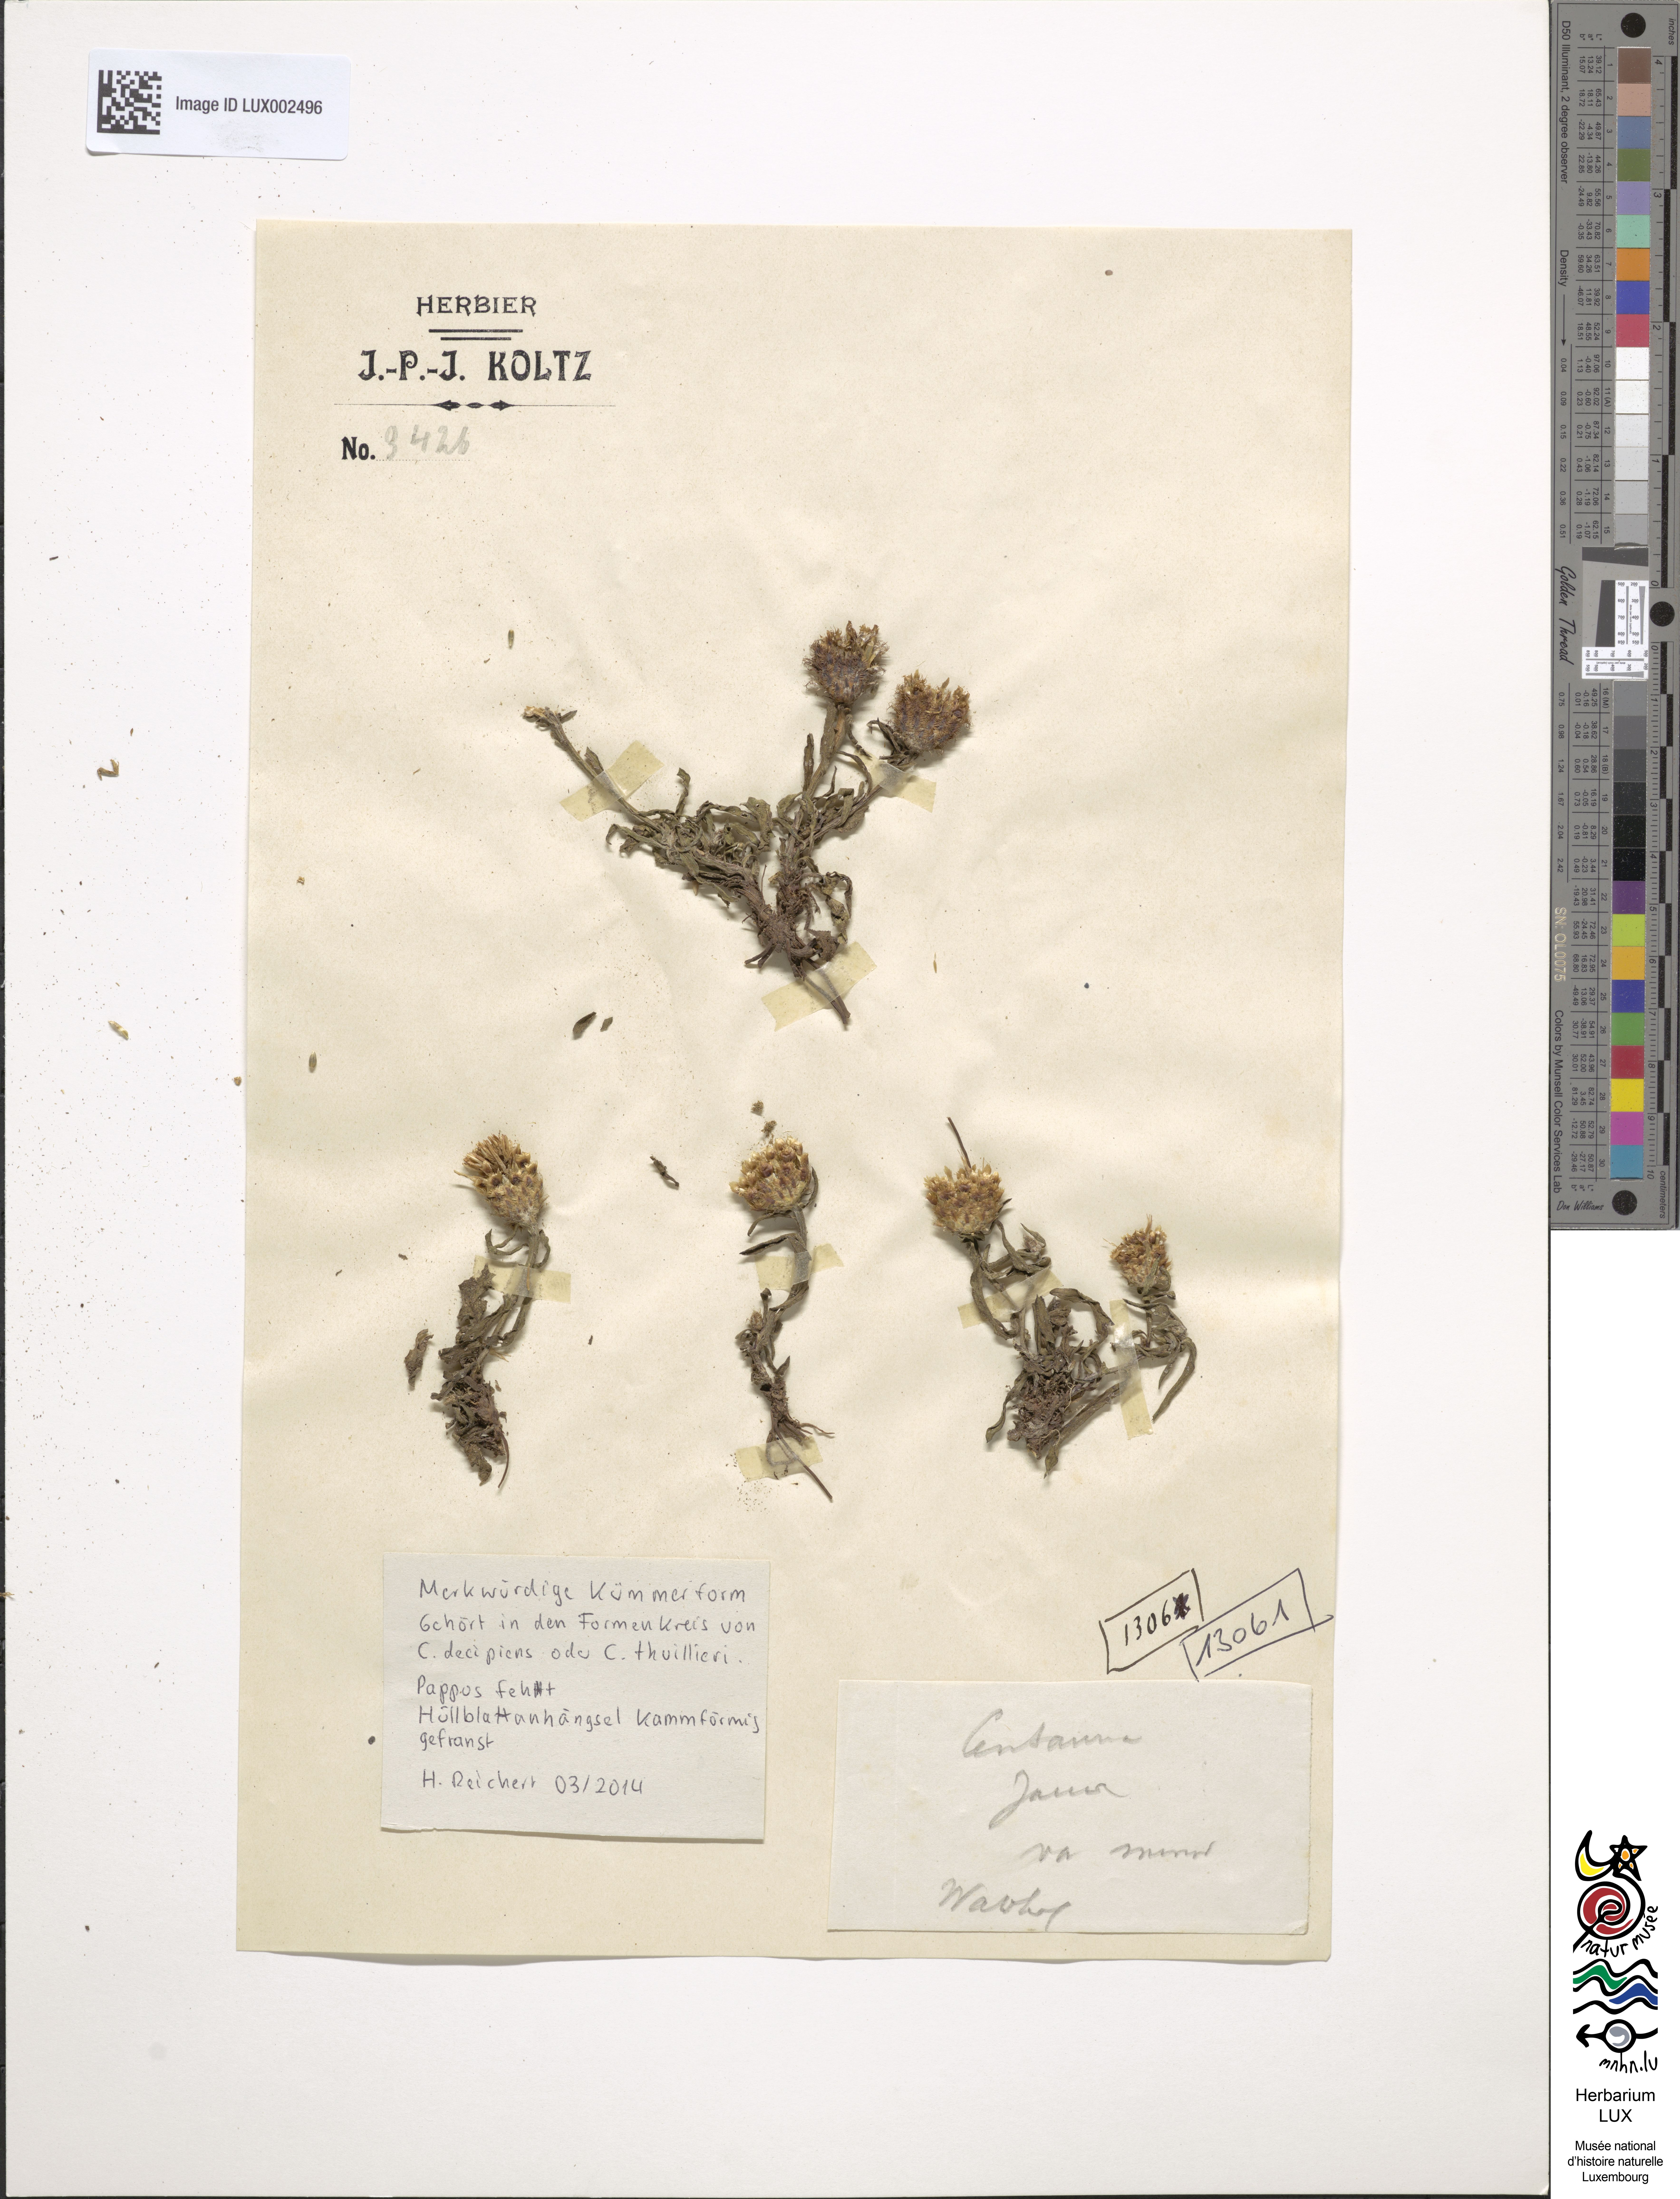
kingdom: Plantae
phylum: Tracheophyta
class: Magnoliopsida
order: Asterales
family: Asteraceae
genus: Centaurea
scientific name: Centaurea jacea
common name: Brown knapweed
